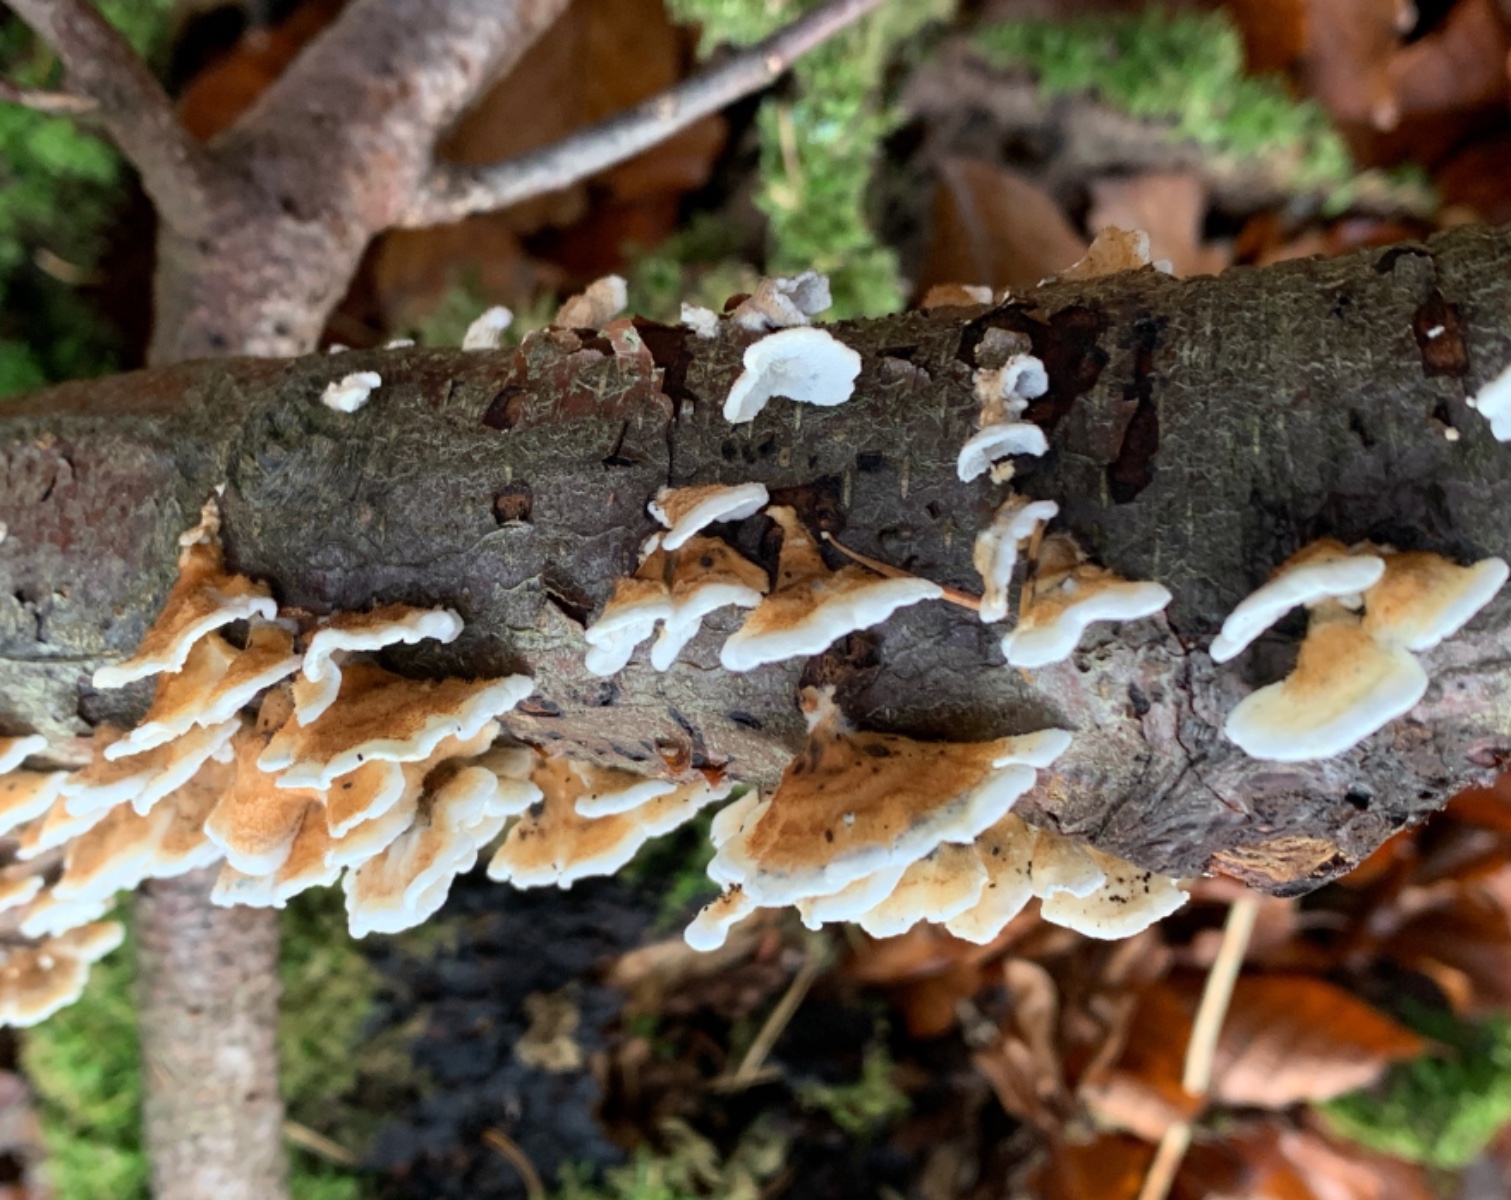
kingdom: Fungi
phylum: Basidiomycota
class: Agaricomycetes
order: Amylocorticiales
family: Amylocorticiaceae
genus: Plicaturopsis
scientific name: Plicaturopsis crispa
